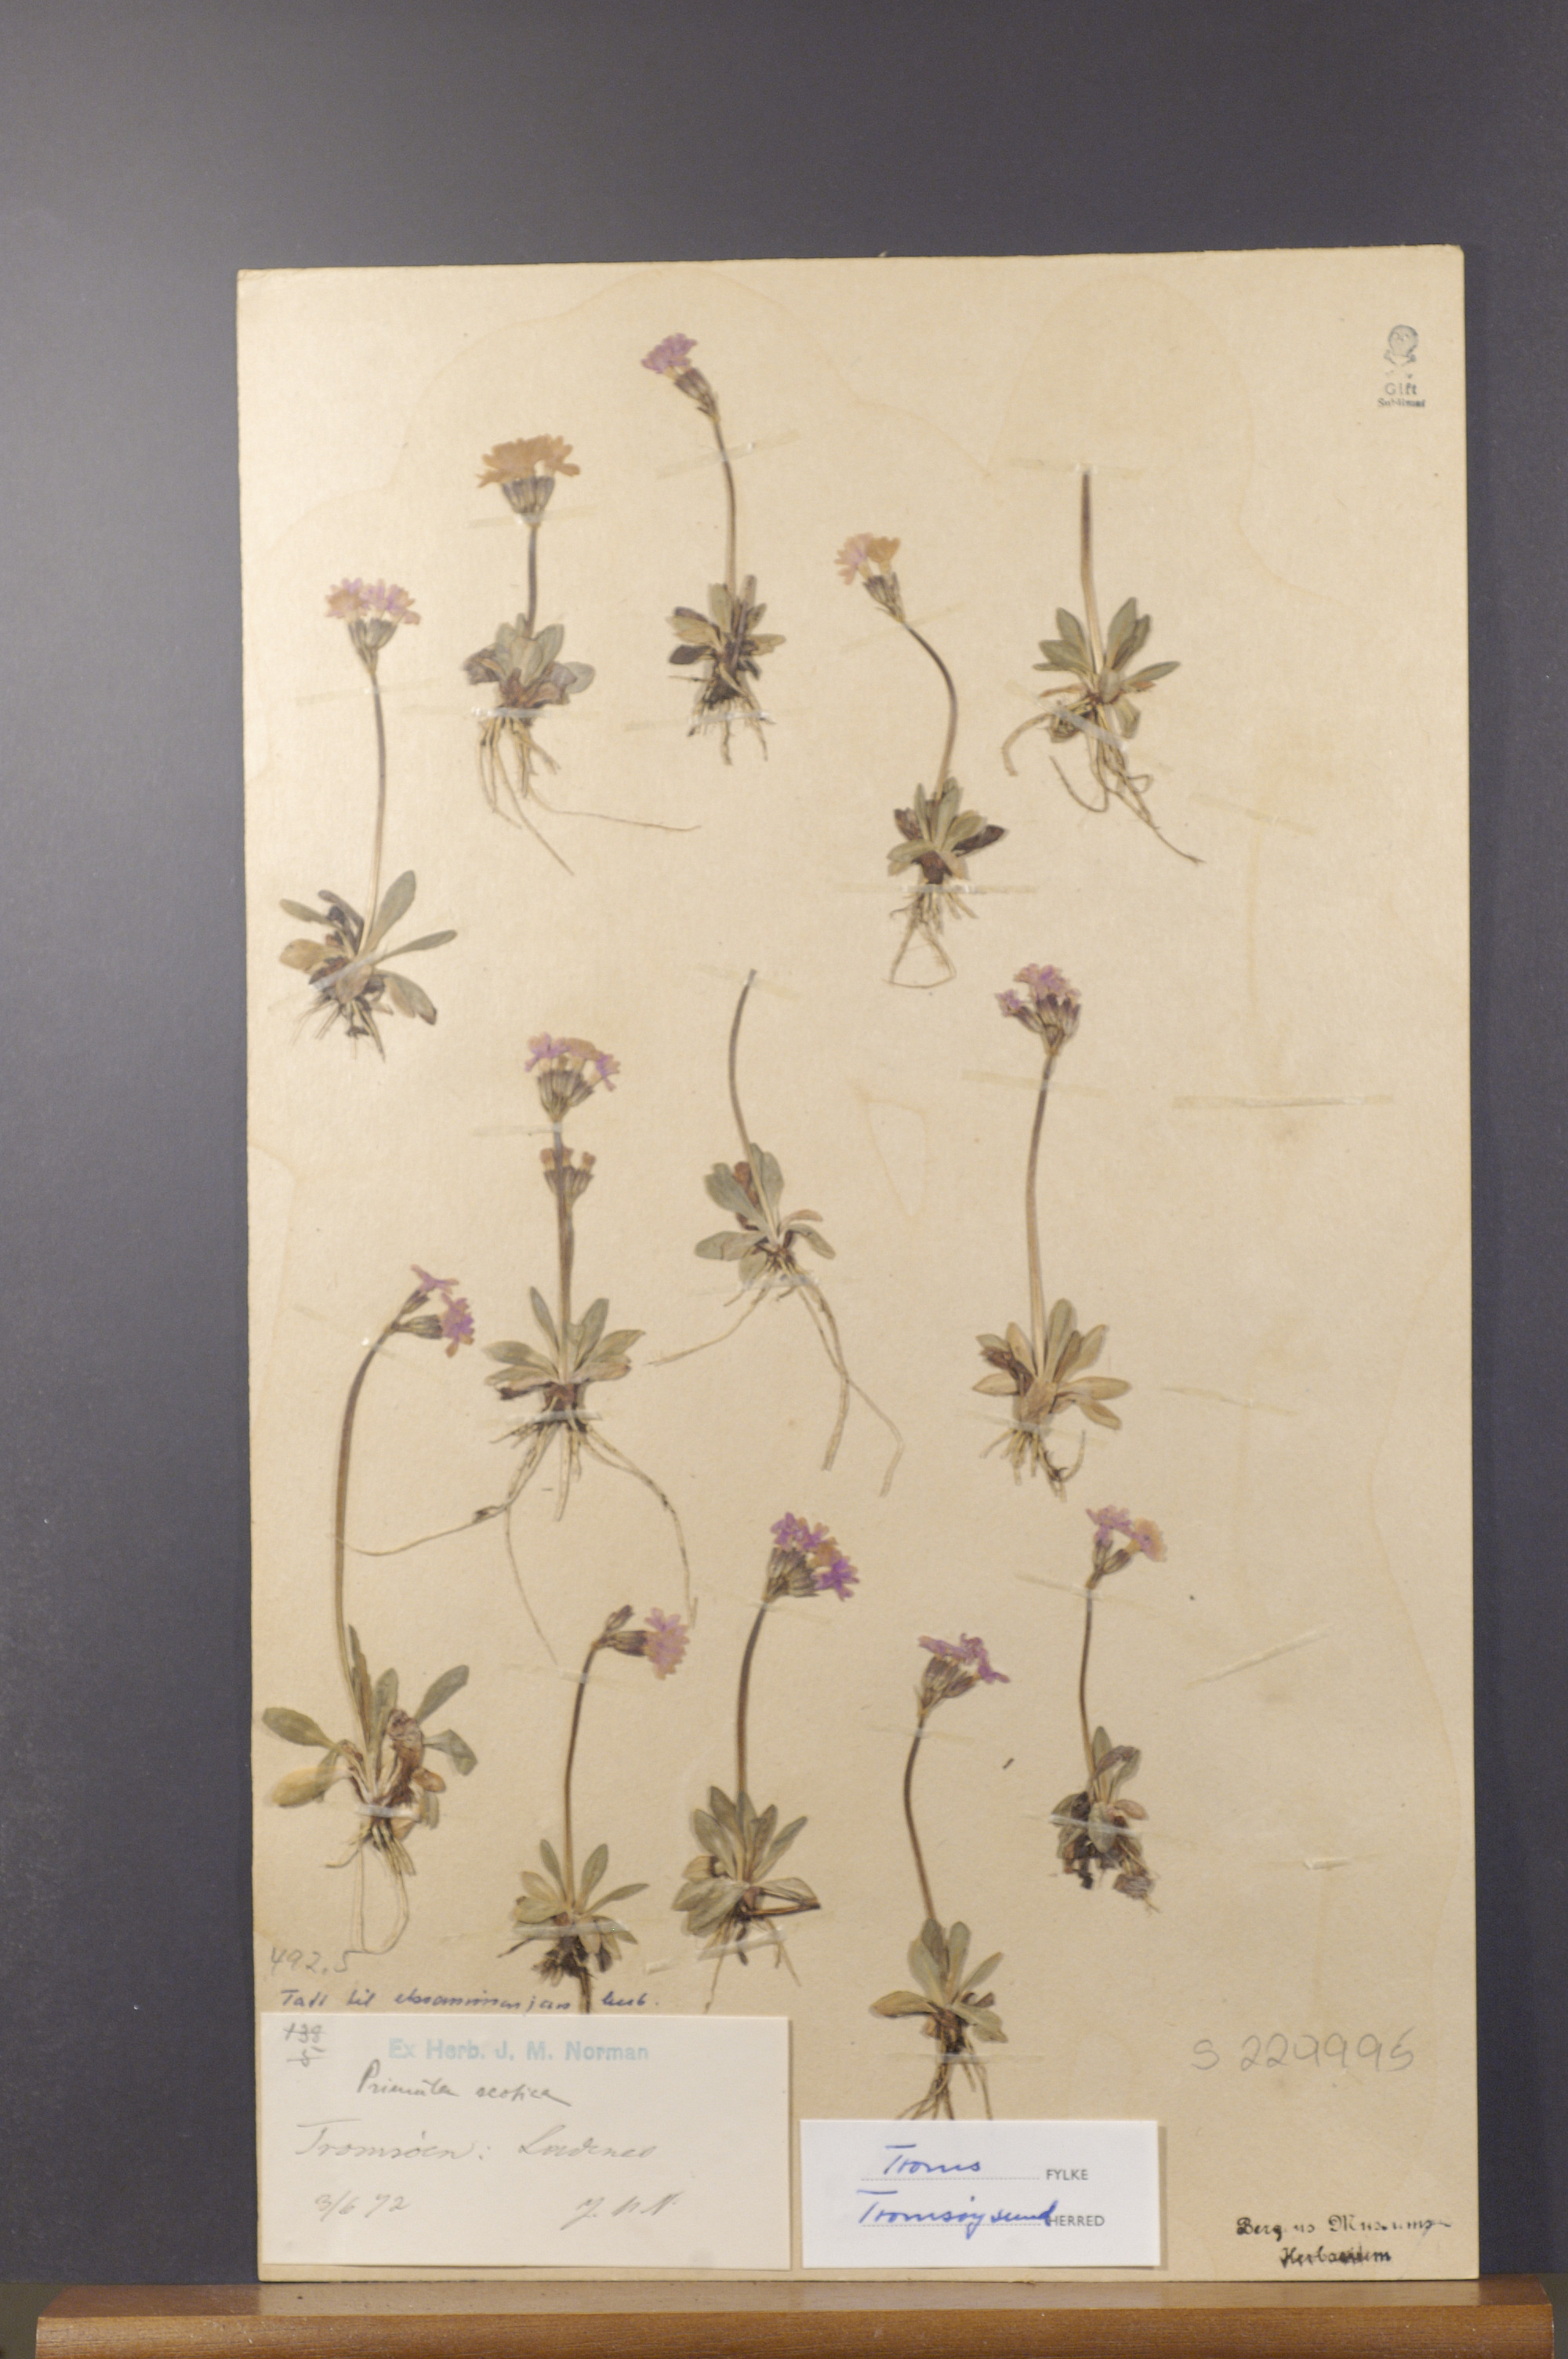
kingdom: Plantae
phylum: Tracheophyta
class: Magnoliopsida
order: Ericales
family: Primulaceae
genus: Primula
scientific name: Primula scandinavica
